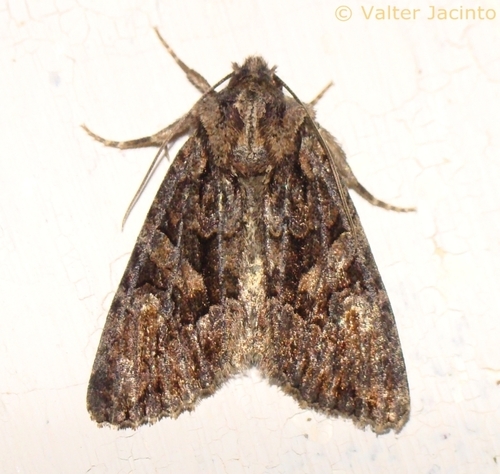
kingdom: Animalia
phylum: Arthropoda
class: Insecta
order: Lepidoptera
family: Noctuidae
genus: Dryobotodes
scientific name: Dryobotodes tenebrosa
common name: Sombre brocade
